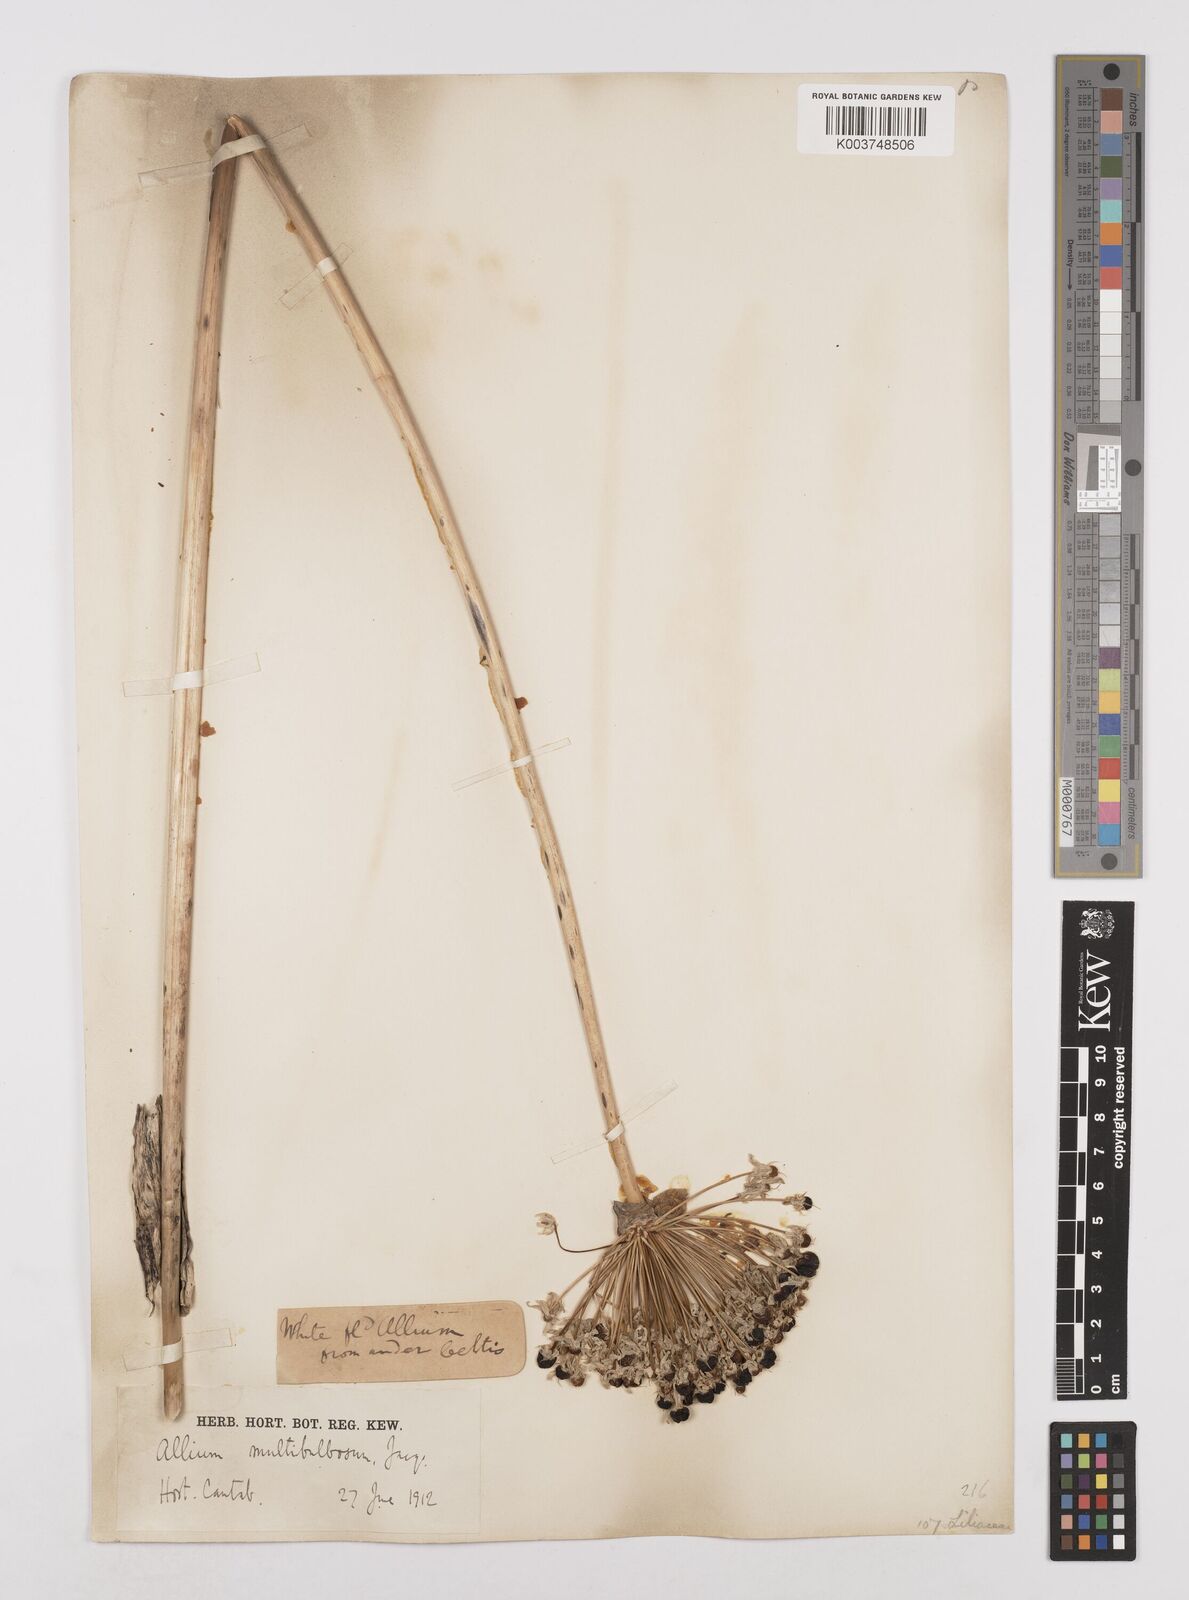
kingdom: Plantae
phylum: Tracheophyta
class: Liliopsida
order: Asparagales
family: Amaryllidaceae
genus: Allium
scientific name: Allium multibulbosum
